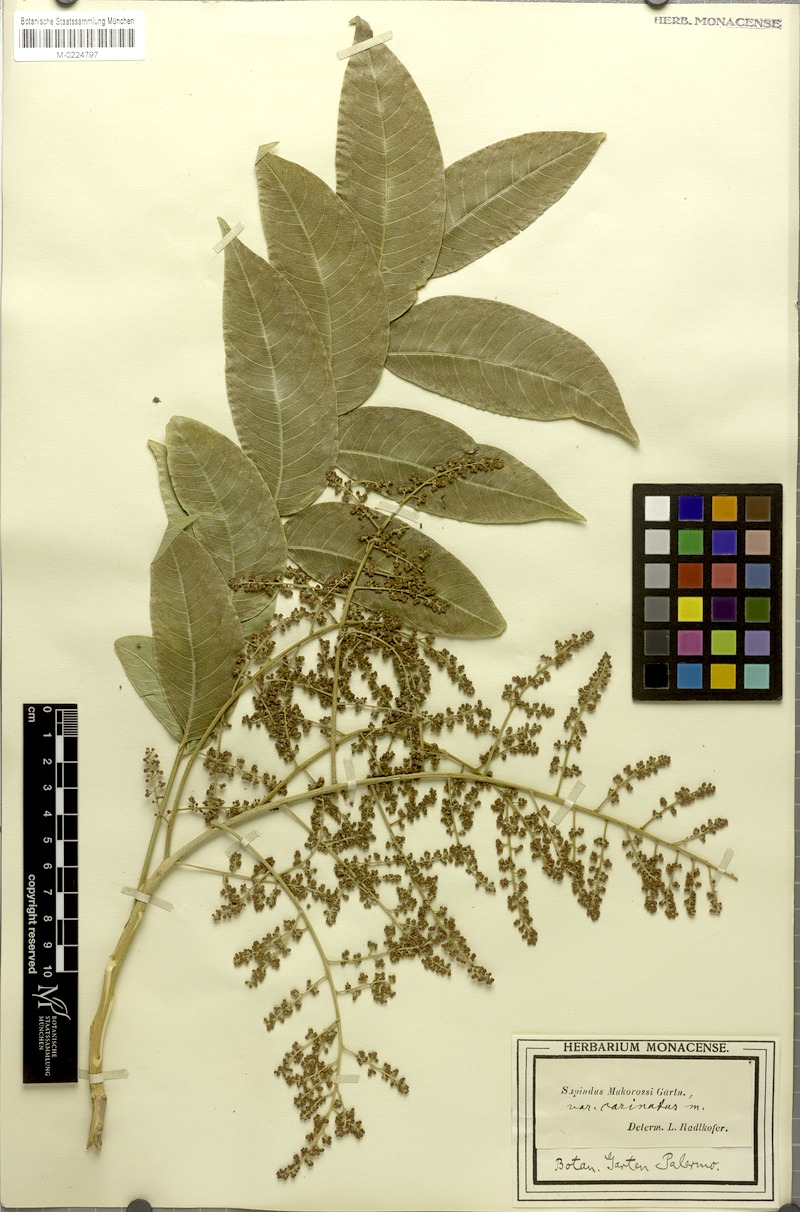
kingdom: Plantae
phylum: Tracheophyta
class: Magnoliopsida
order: Sapindales
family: Sapindaceae
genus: Sapindus
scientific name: Sapindus mukorossi
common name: Chinese soapberry
